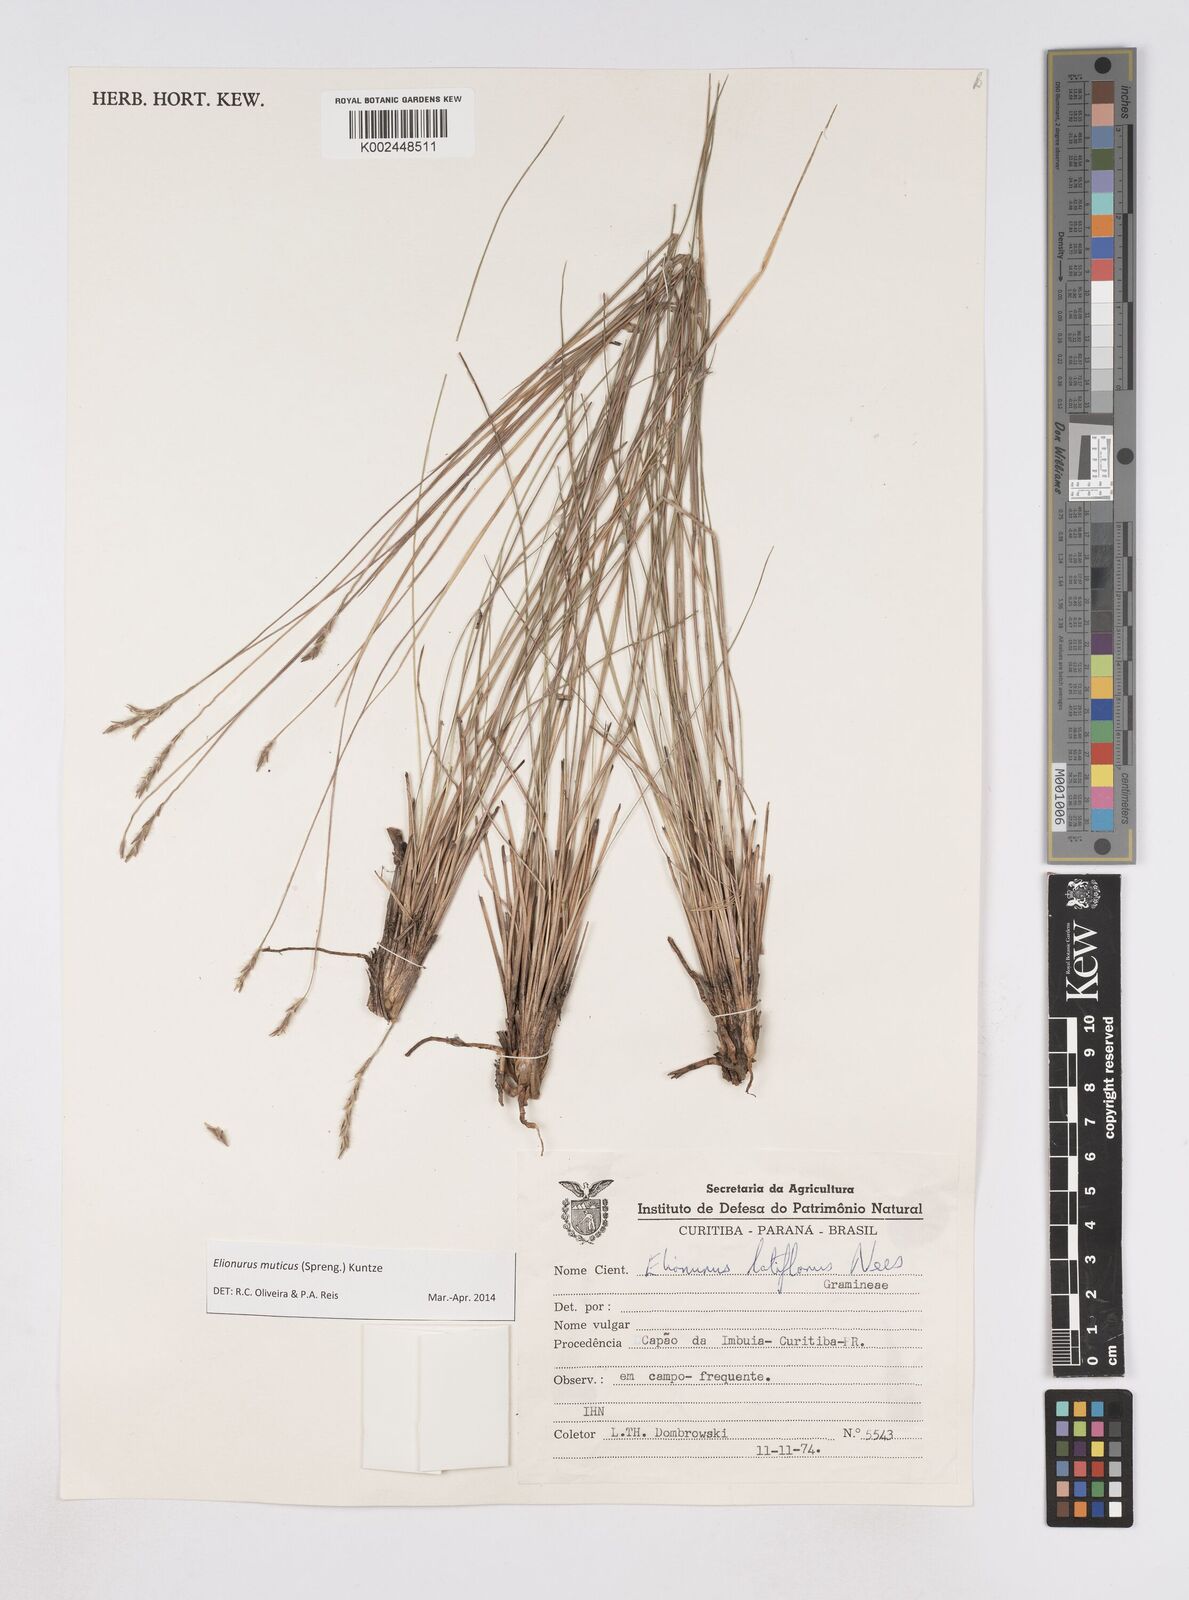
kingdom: Plantae
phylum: Tracheophyta
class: Liliopsida
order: Poales
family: Poaceae
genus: Elionurus
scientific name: Elionurus muticus
